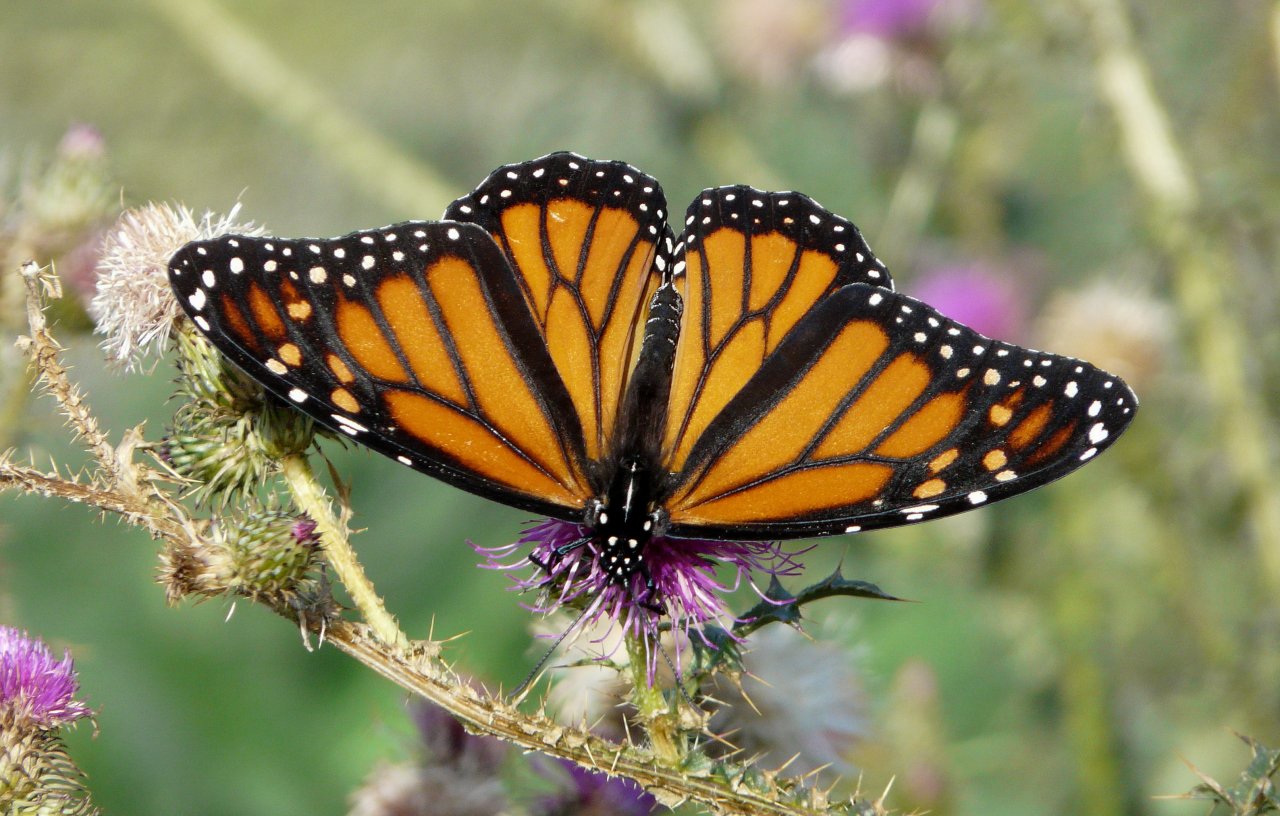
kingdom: Animalia
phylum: Arthropoda
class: Insecta
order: Lepidoptera
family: Nymphalidae
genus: Danaus
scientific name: Danaus plexippus
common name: Monarch
